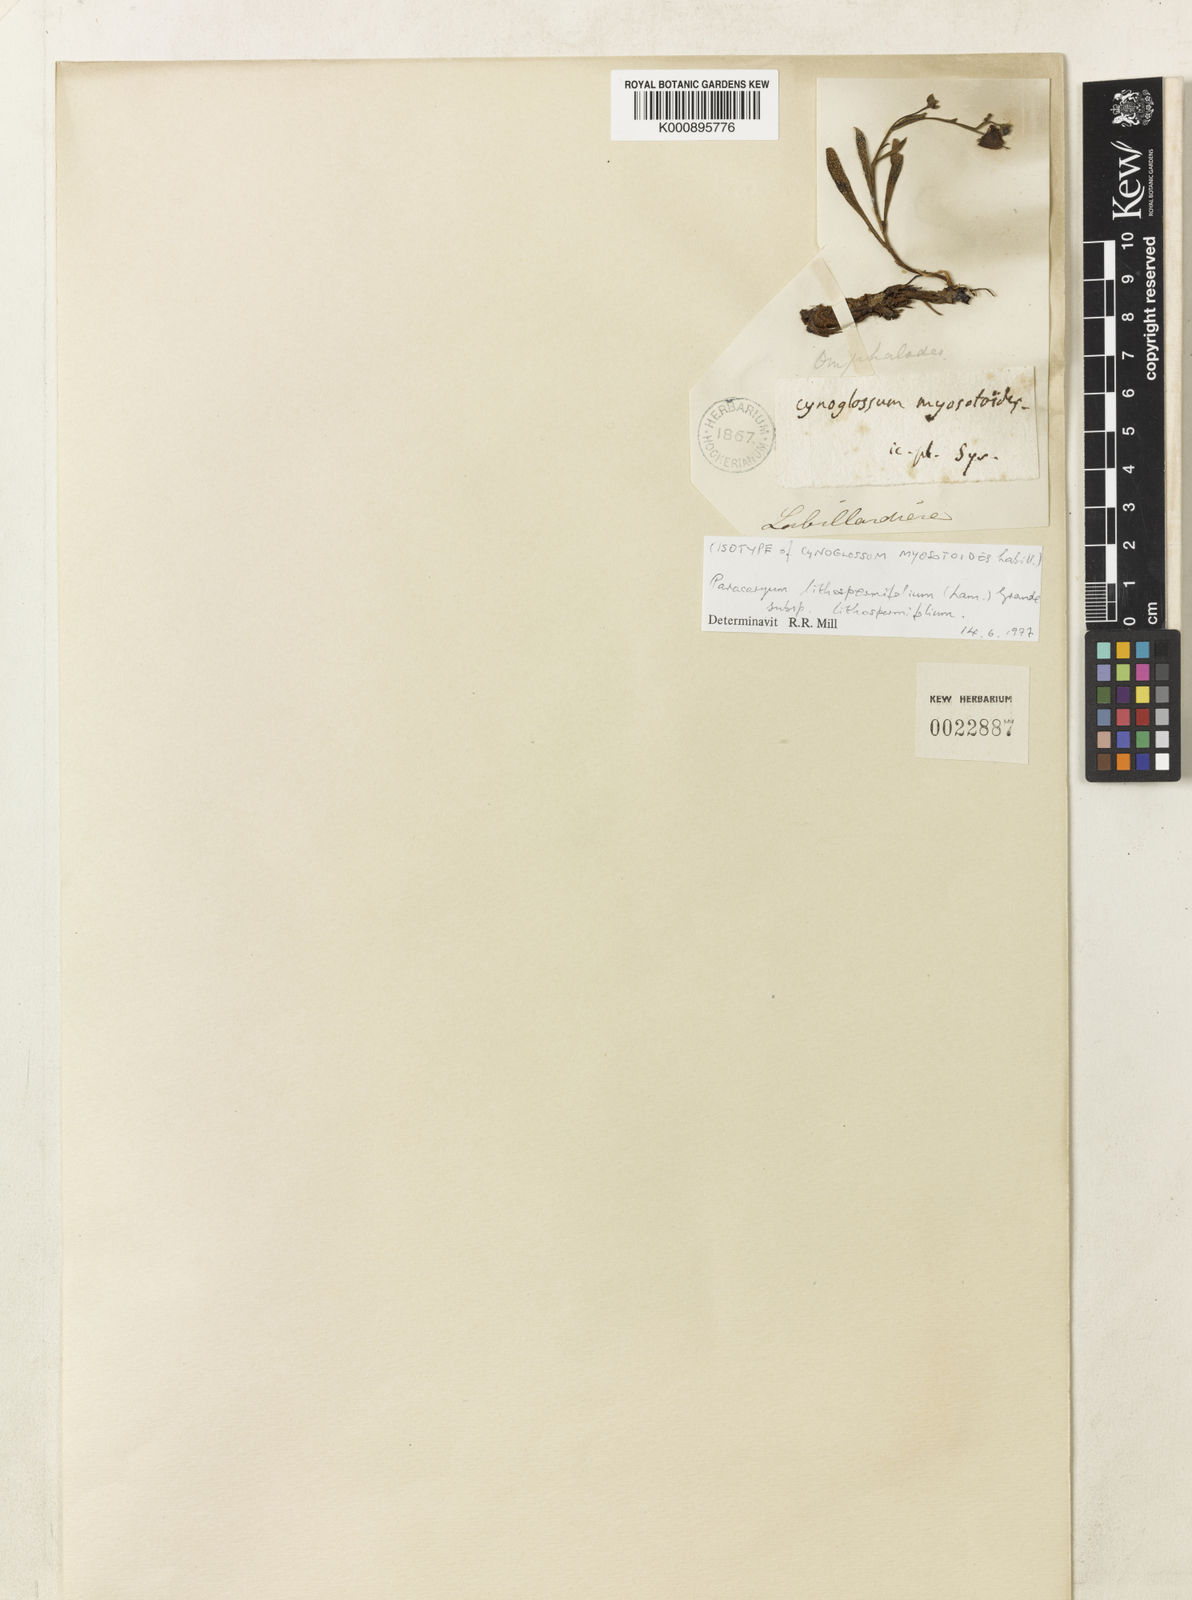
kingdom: Plantae
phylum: Tracheophyta
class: Magnoliopsida
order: Boraginales
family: Boraginaceae
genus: Paracaryum
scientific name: Paracaryum lithospermifolium
